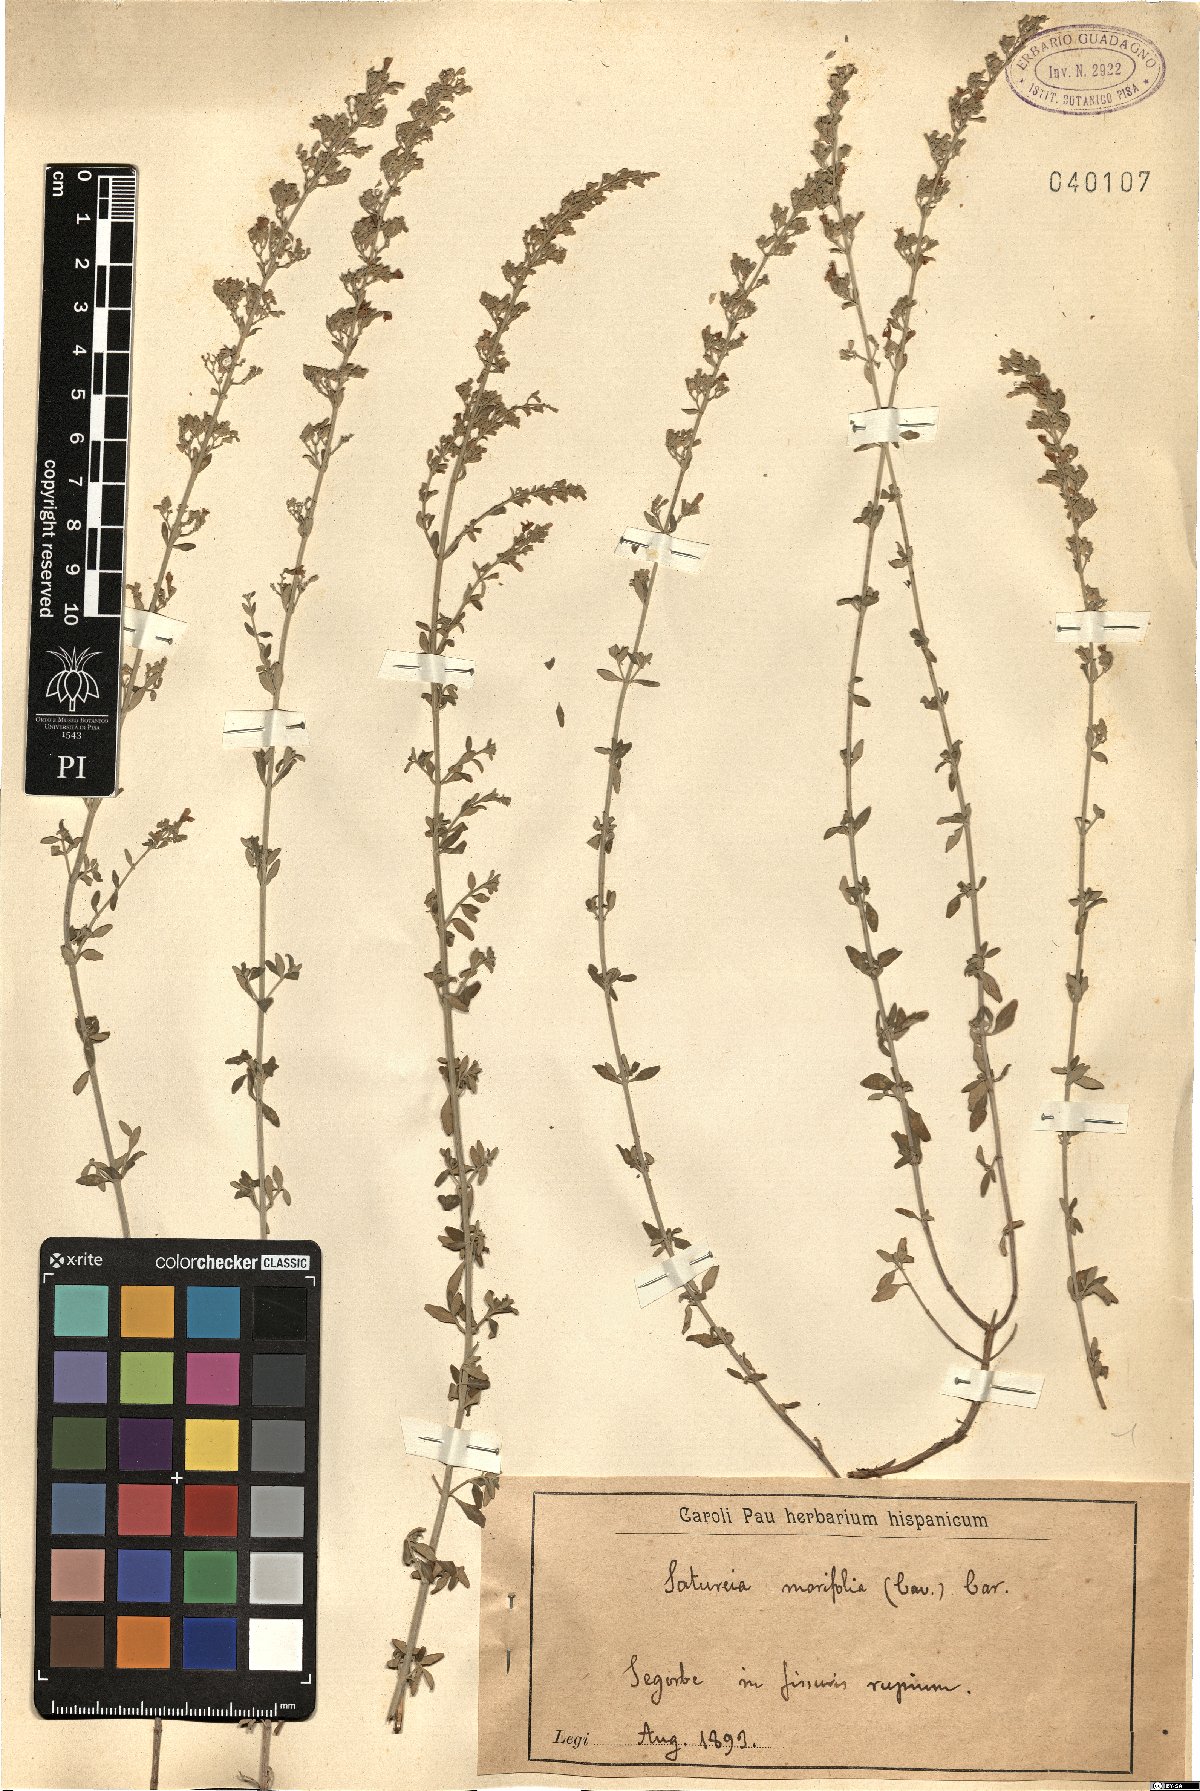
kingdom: Plantae
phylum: Tracheophyta
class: Magnoliopsida
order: Lamiales
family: Lamiaceae
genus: Clinopodium
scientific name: Clinopodium serpyllifolium
